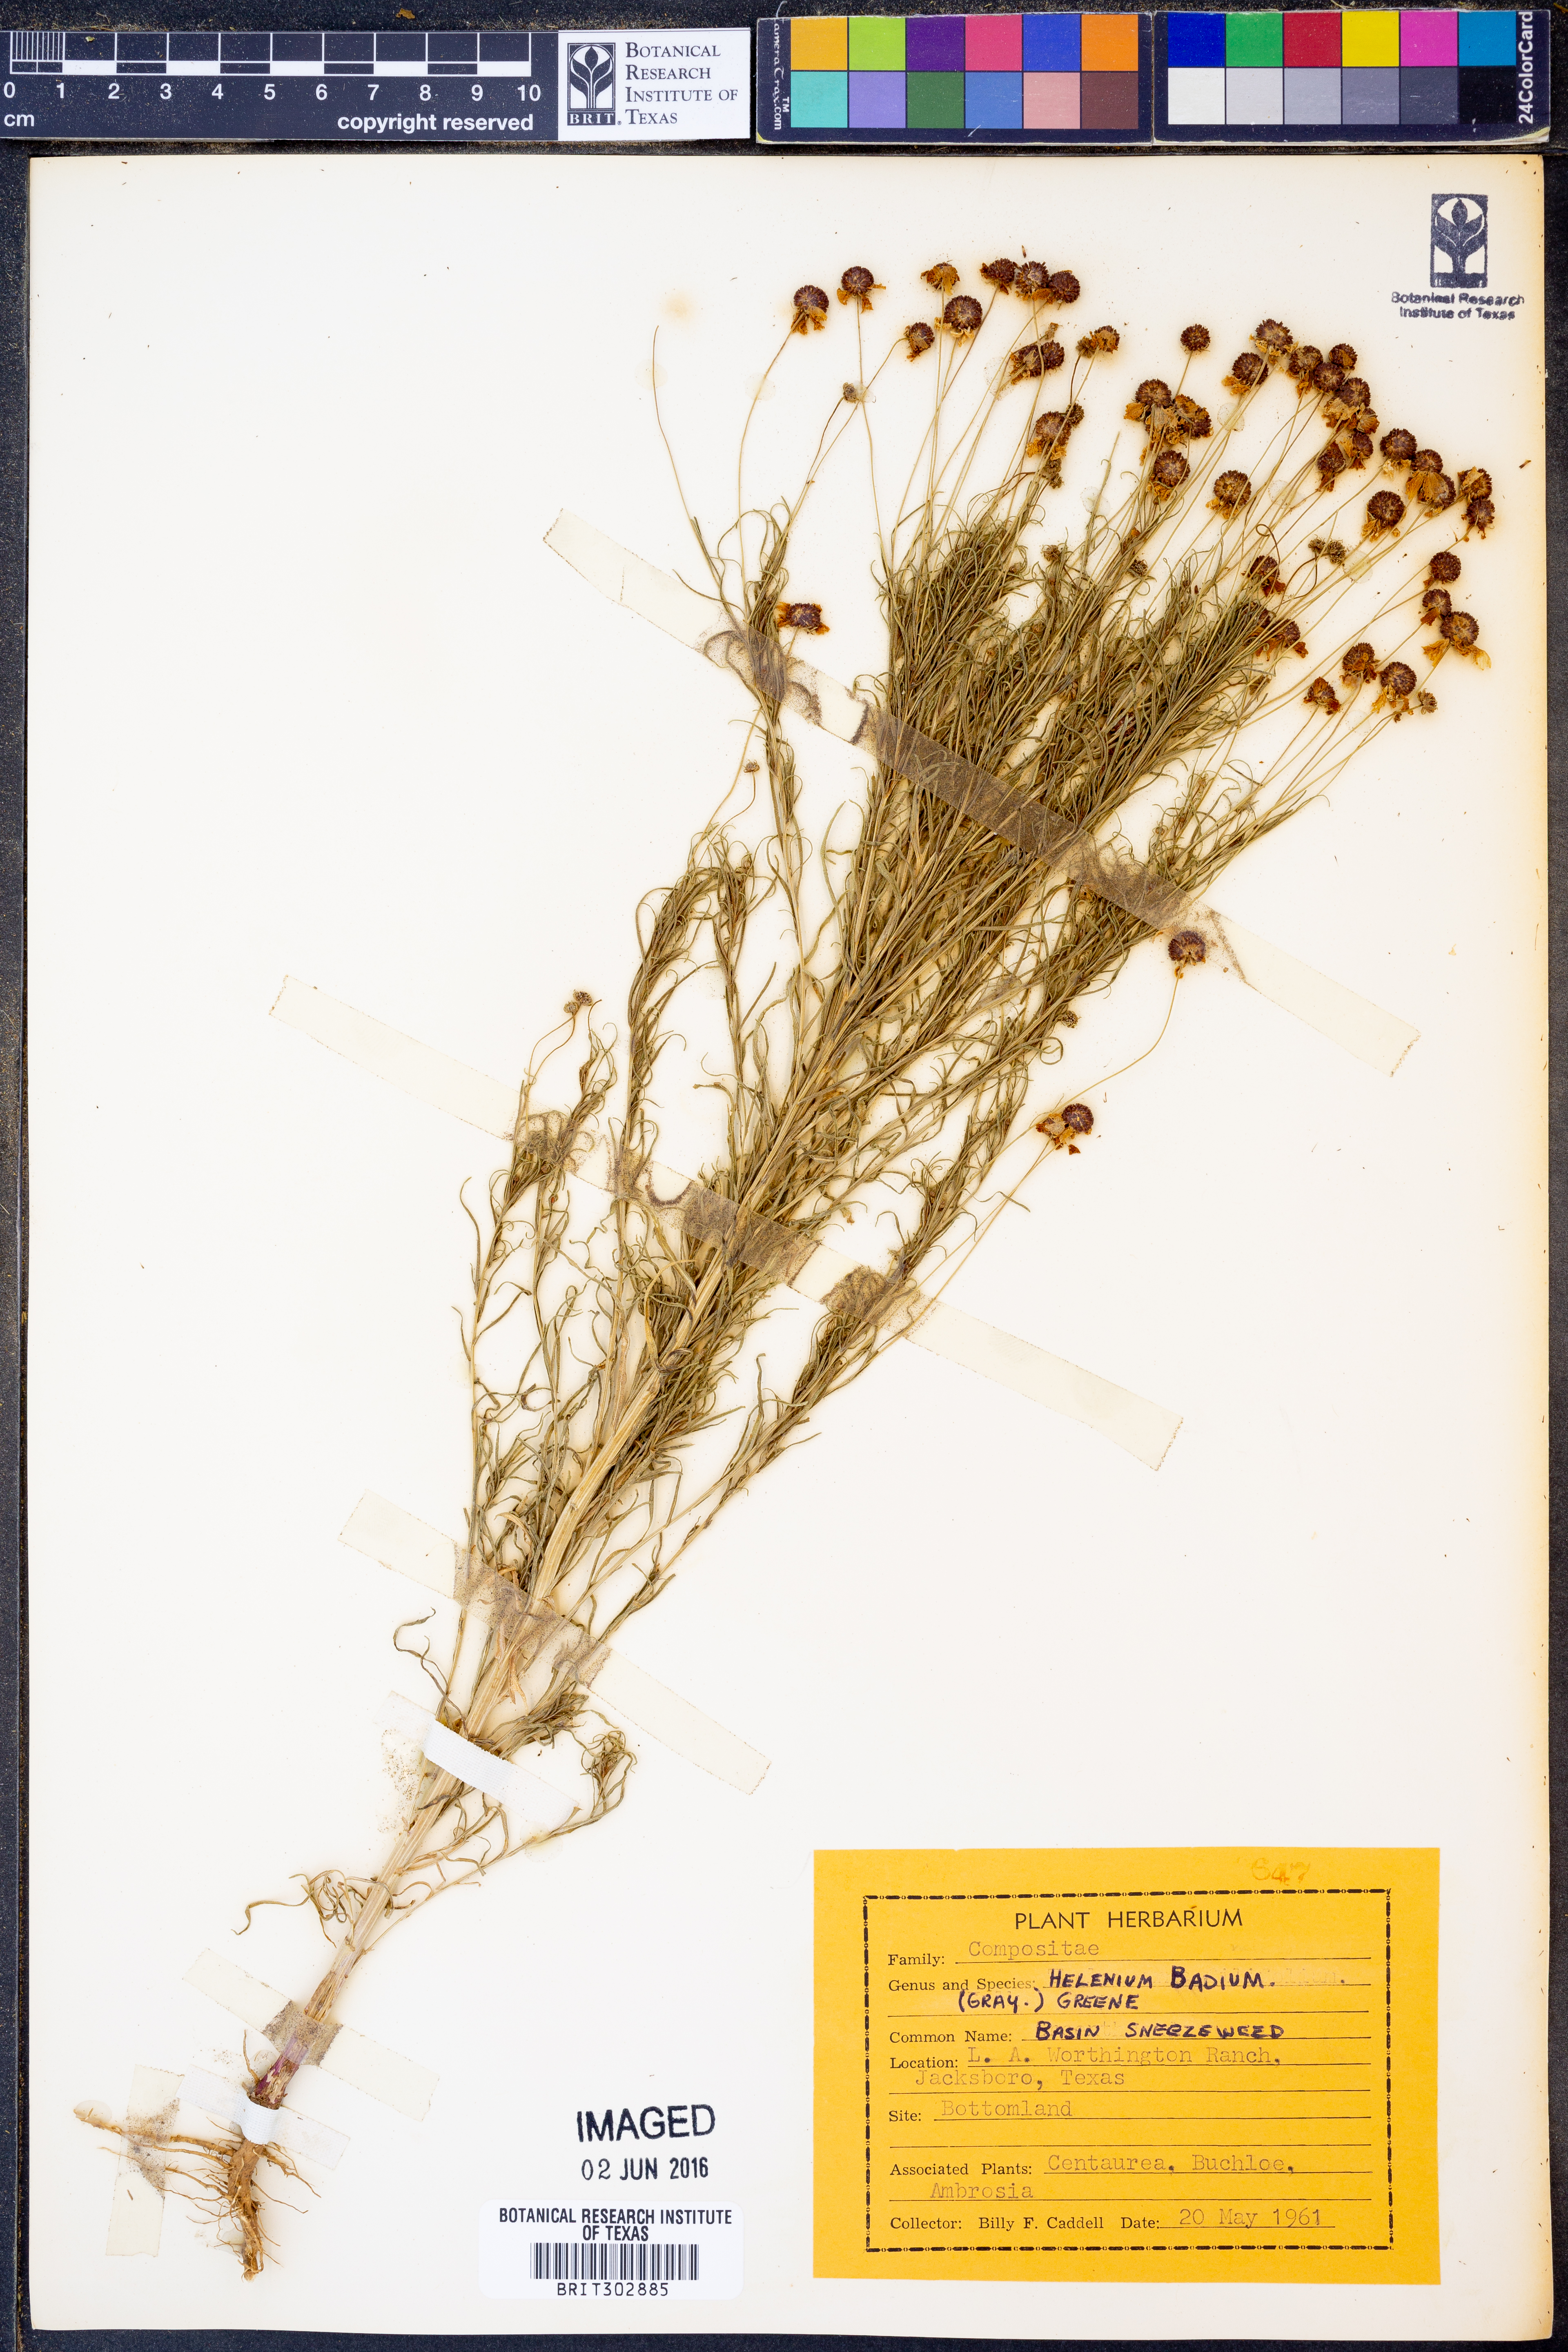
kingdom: Plantae
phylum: Tracheophyta
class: Magnoliopsida
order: Asterales
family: Asteraceae
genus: Helenium
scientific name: Helenium amarum
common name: Bitter sneezeweed
